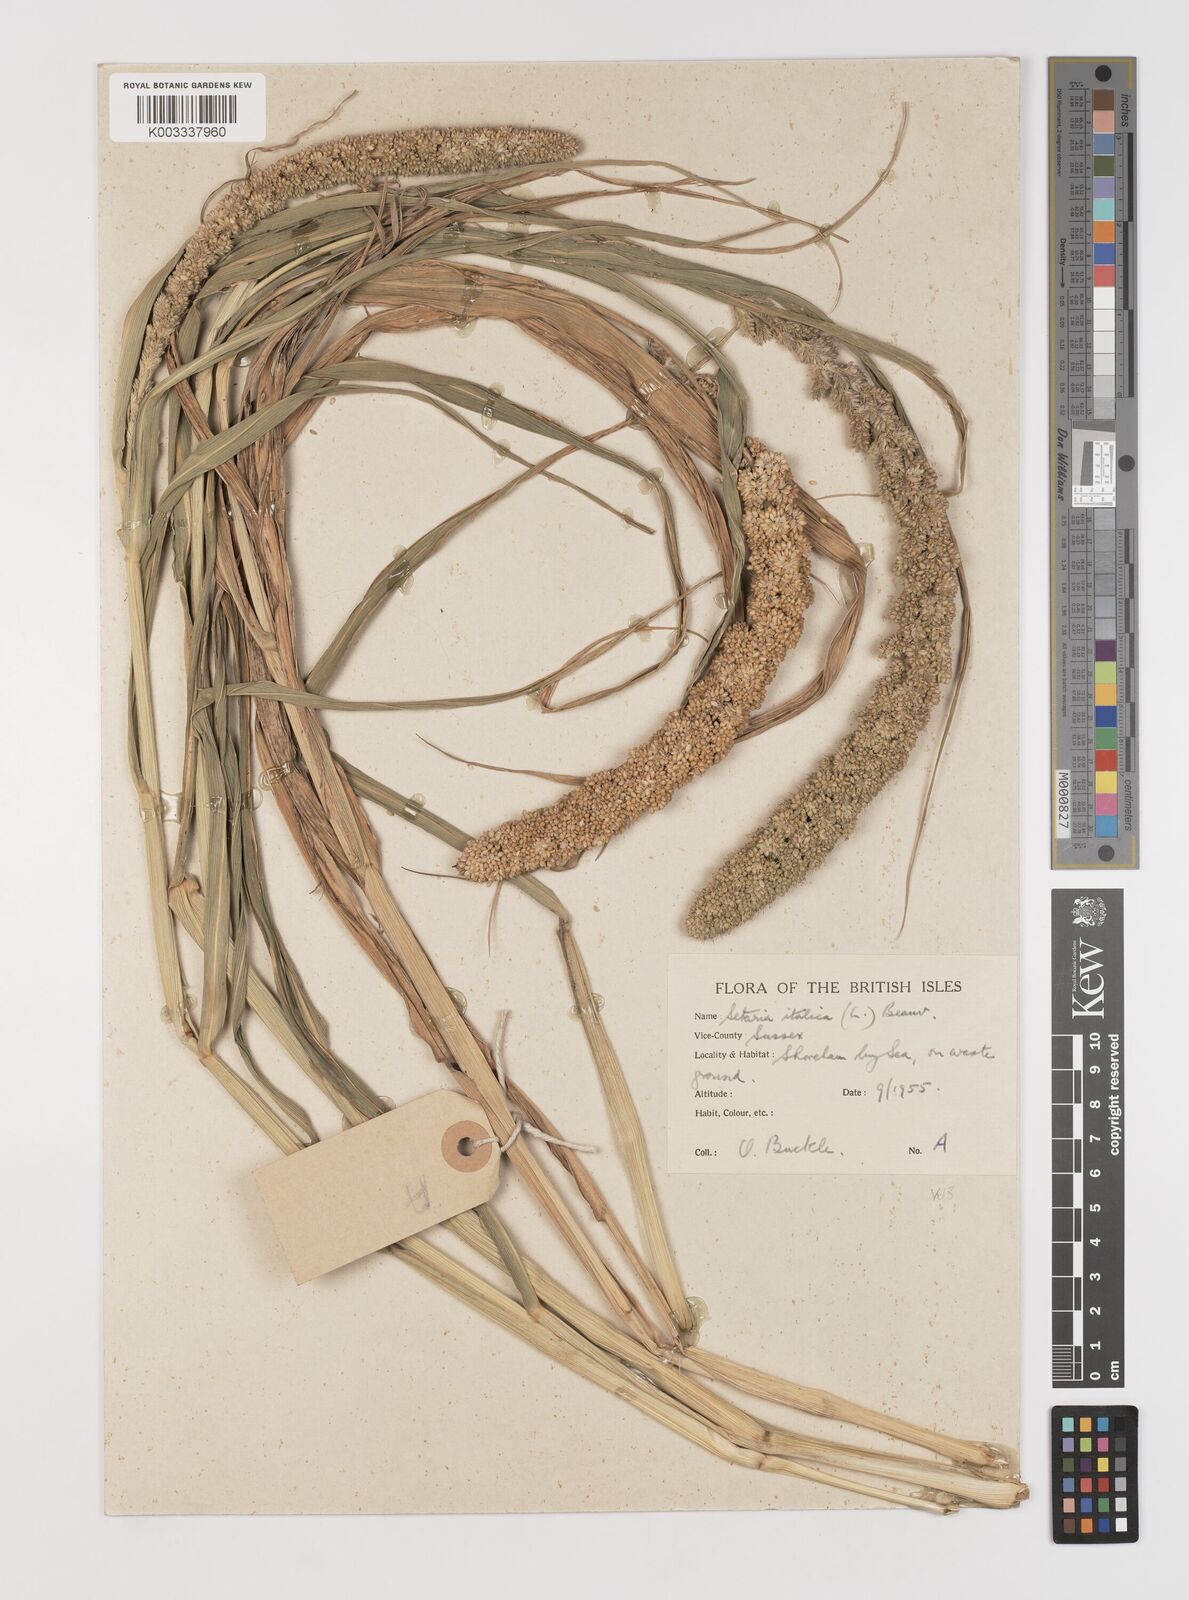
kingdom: Plantae
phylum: Tracheophyta
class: Liliopsida
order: Poales
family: Poaceae
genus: Setaria
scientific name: Setaria italica
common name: Foxtail bristle-grass
